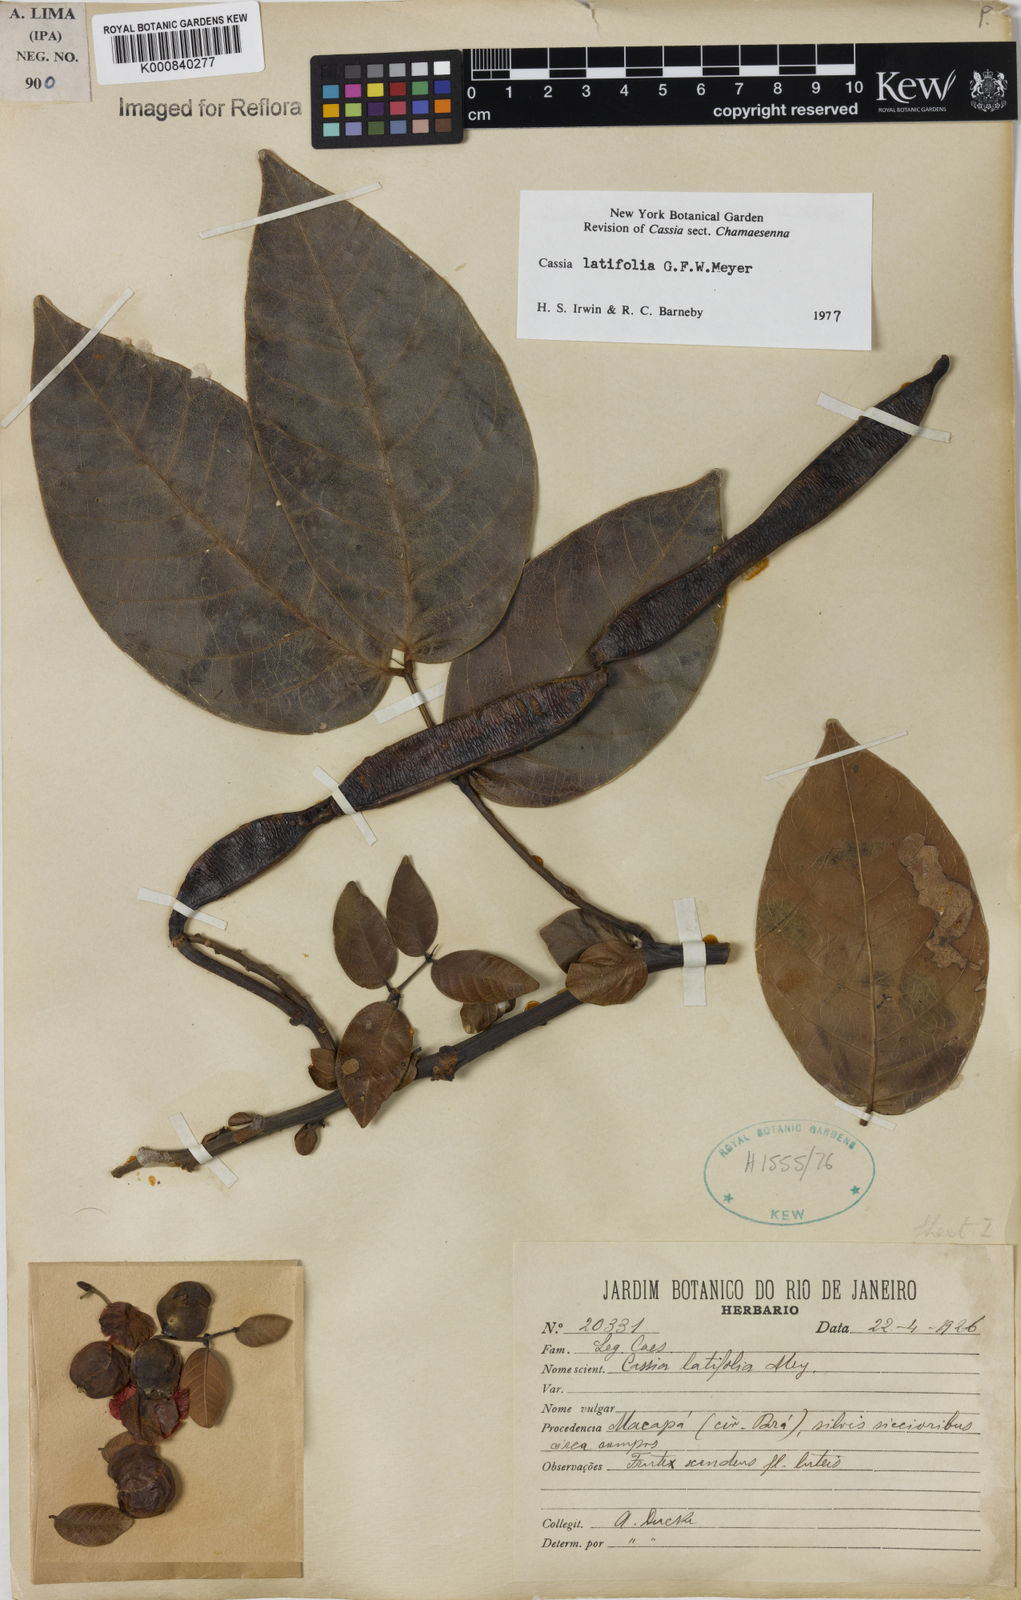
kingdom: Plantae
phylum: Tracheophyta
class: Magnoliopsida
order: Fabales
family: Fabaceae
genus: Senna
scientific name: Senna latifolia
